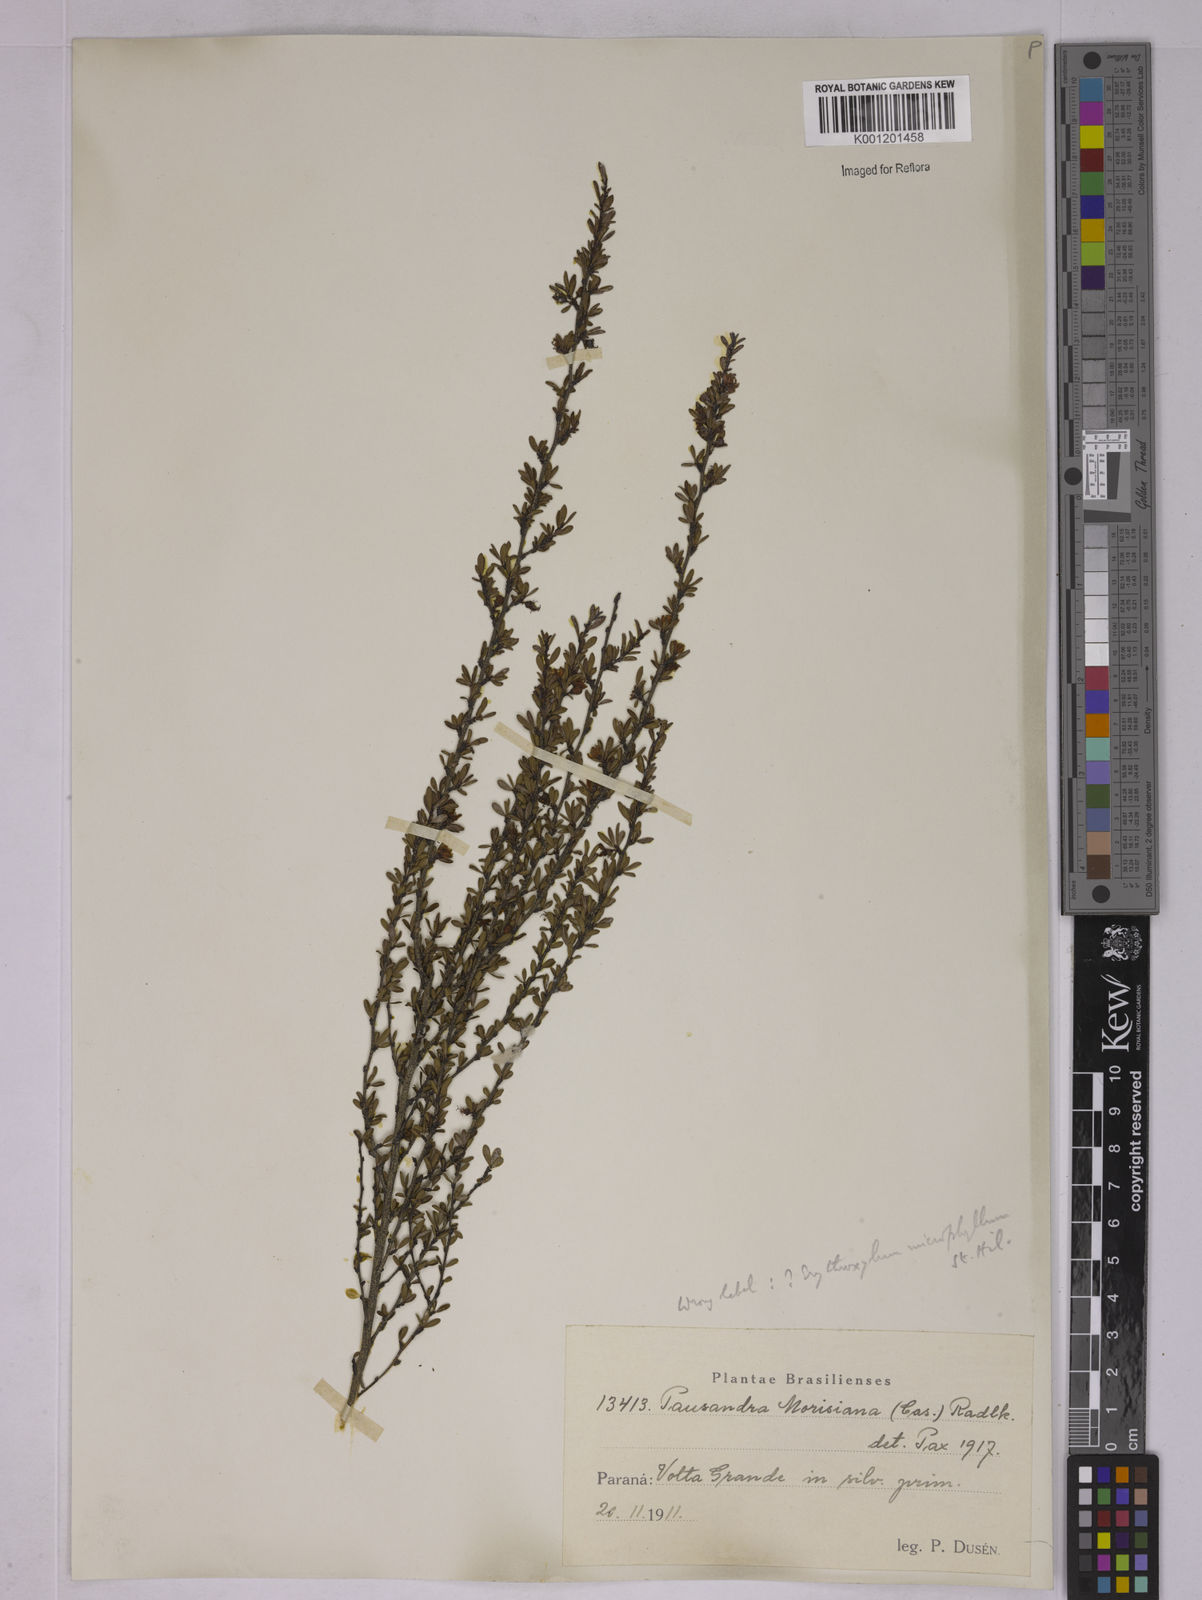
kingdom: Plantae
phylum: Tracheophyta
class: Magnoliopsida
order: Malpighiales
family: Erythroxylaceae
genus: Erythroxylum
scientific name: Erythroxylum microphyllum
